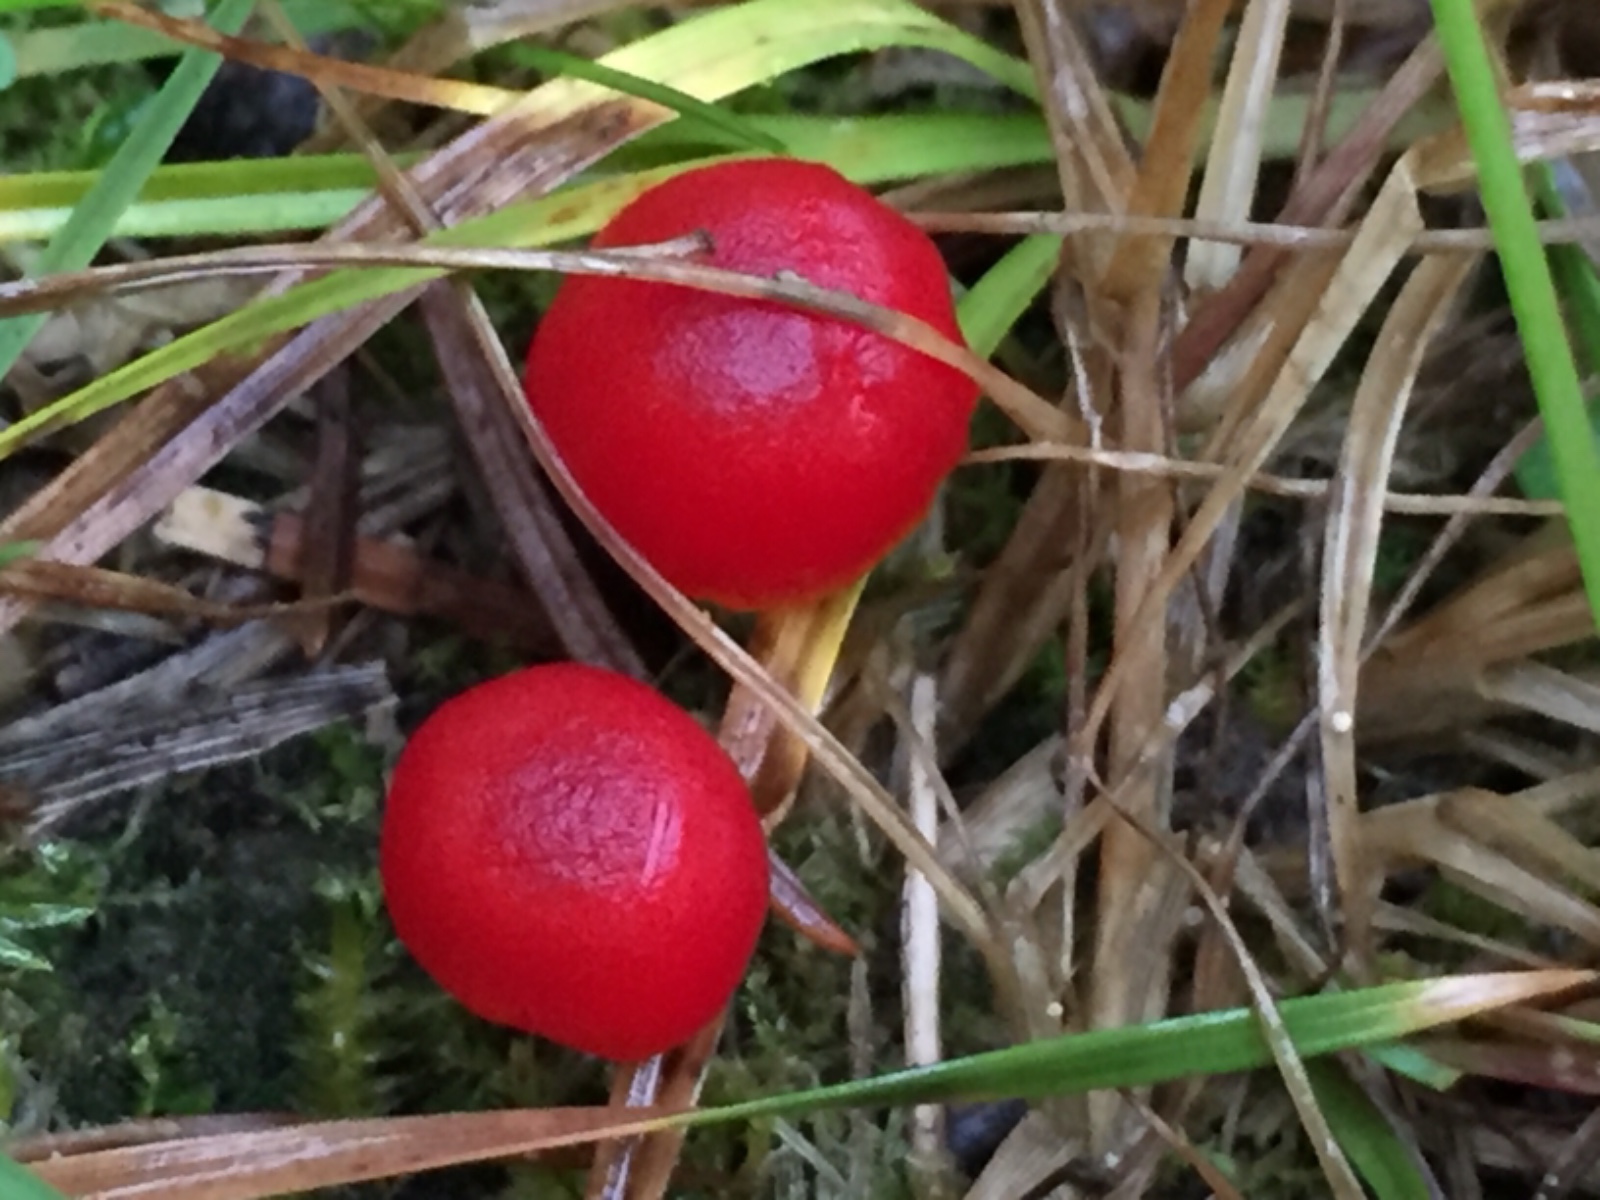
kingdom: Fungi
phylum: Basidiomycota
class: Agaricomycetes
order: Agaricales
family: Hygrophoraceae
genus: Hygrocybe
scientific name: Hygrocybe phaeococcinea
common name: sortdugget vokshat
